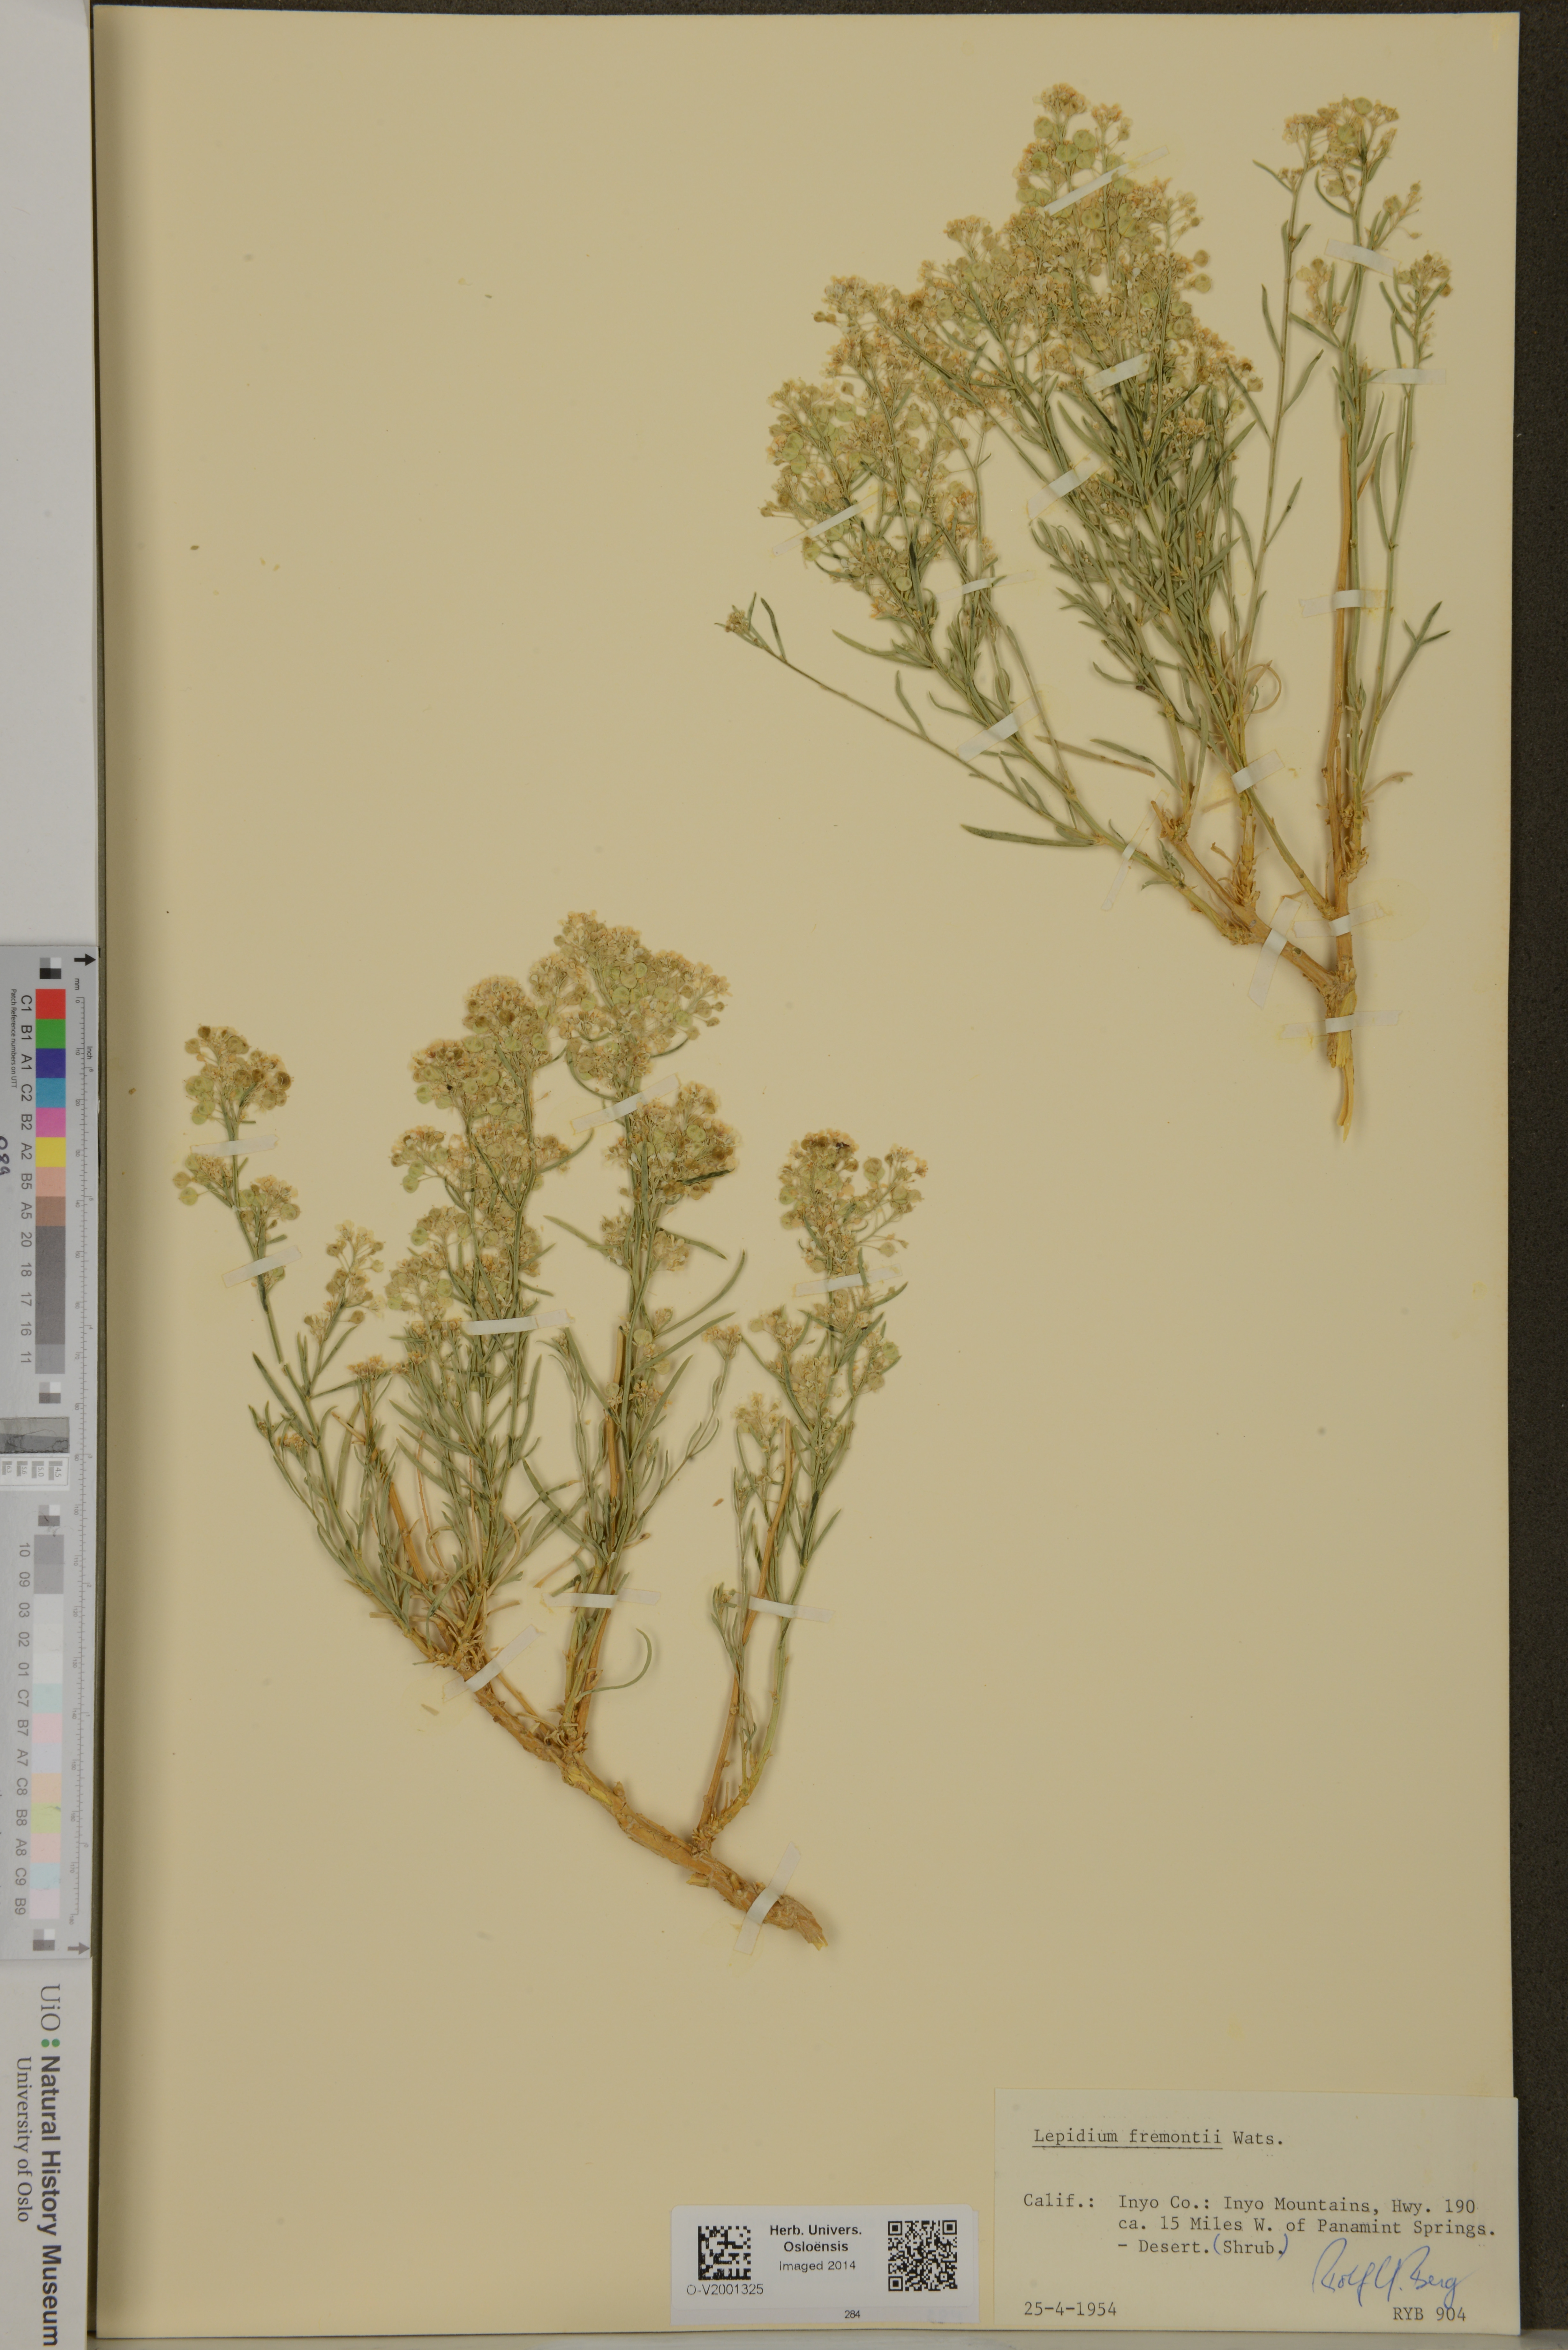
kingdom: Plantae
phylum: Tracheophyta
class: Magnoliopsida
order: Brassicales
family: Brassicaceae
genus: Lepidium
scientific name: Lepidium fremontii
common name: Fremont's pepperwort
